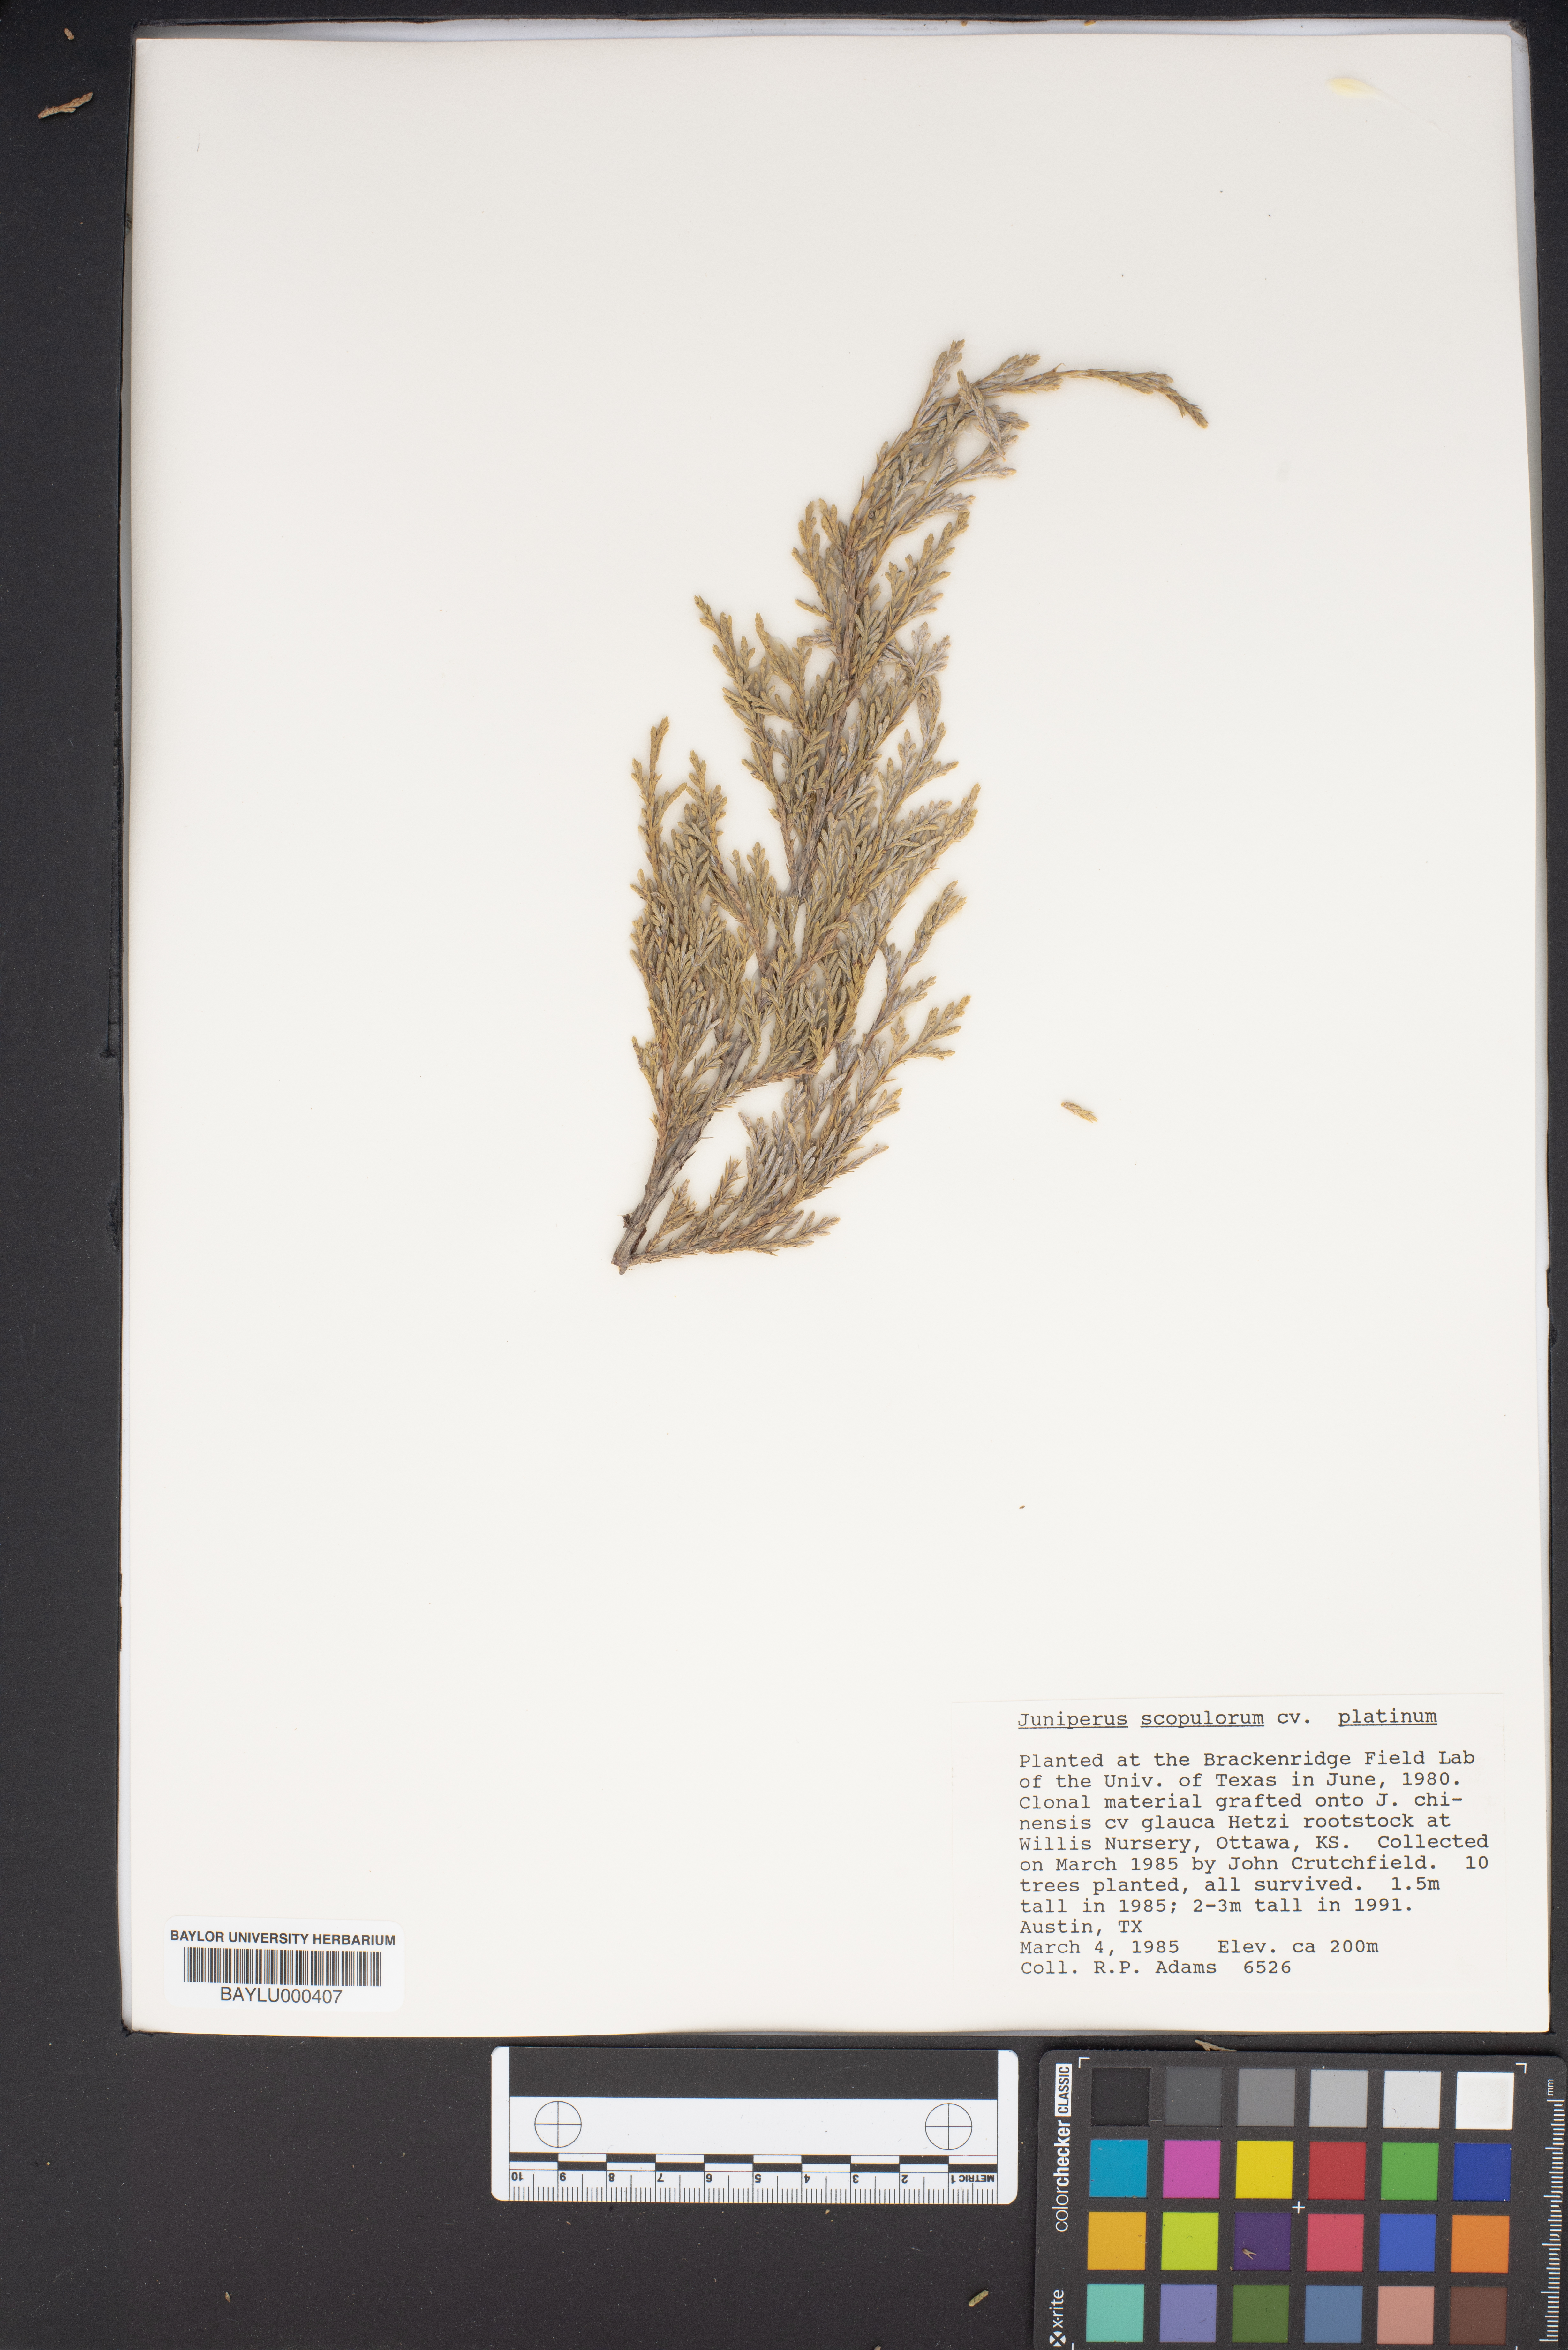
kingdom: Plantae
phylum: Tracheophyta
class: Pinopsida
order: Pinales
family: Cupressaceae
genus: Juniperus
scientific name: Juniperus scopulorum
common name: Rocky mountain juniper
